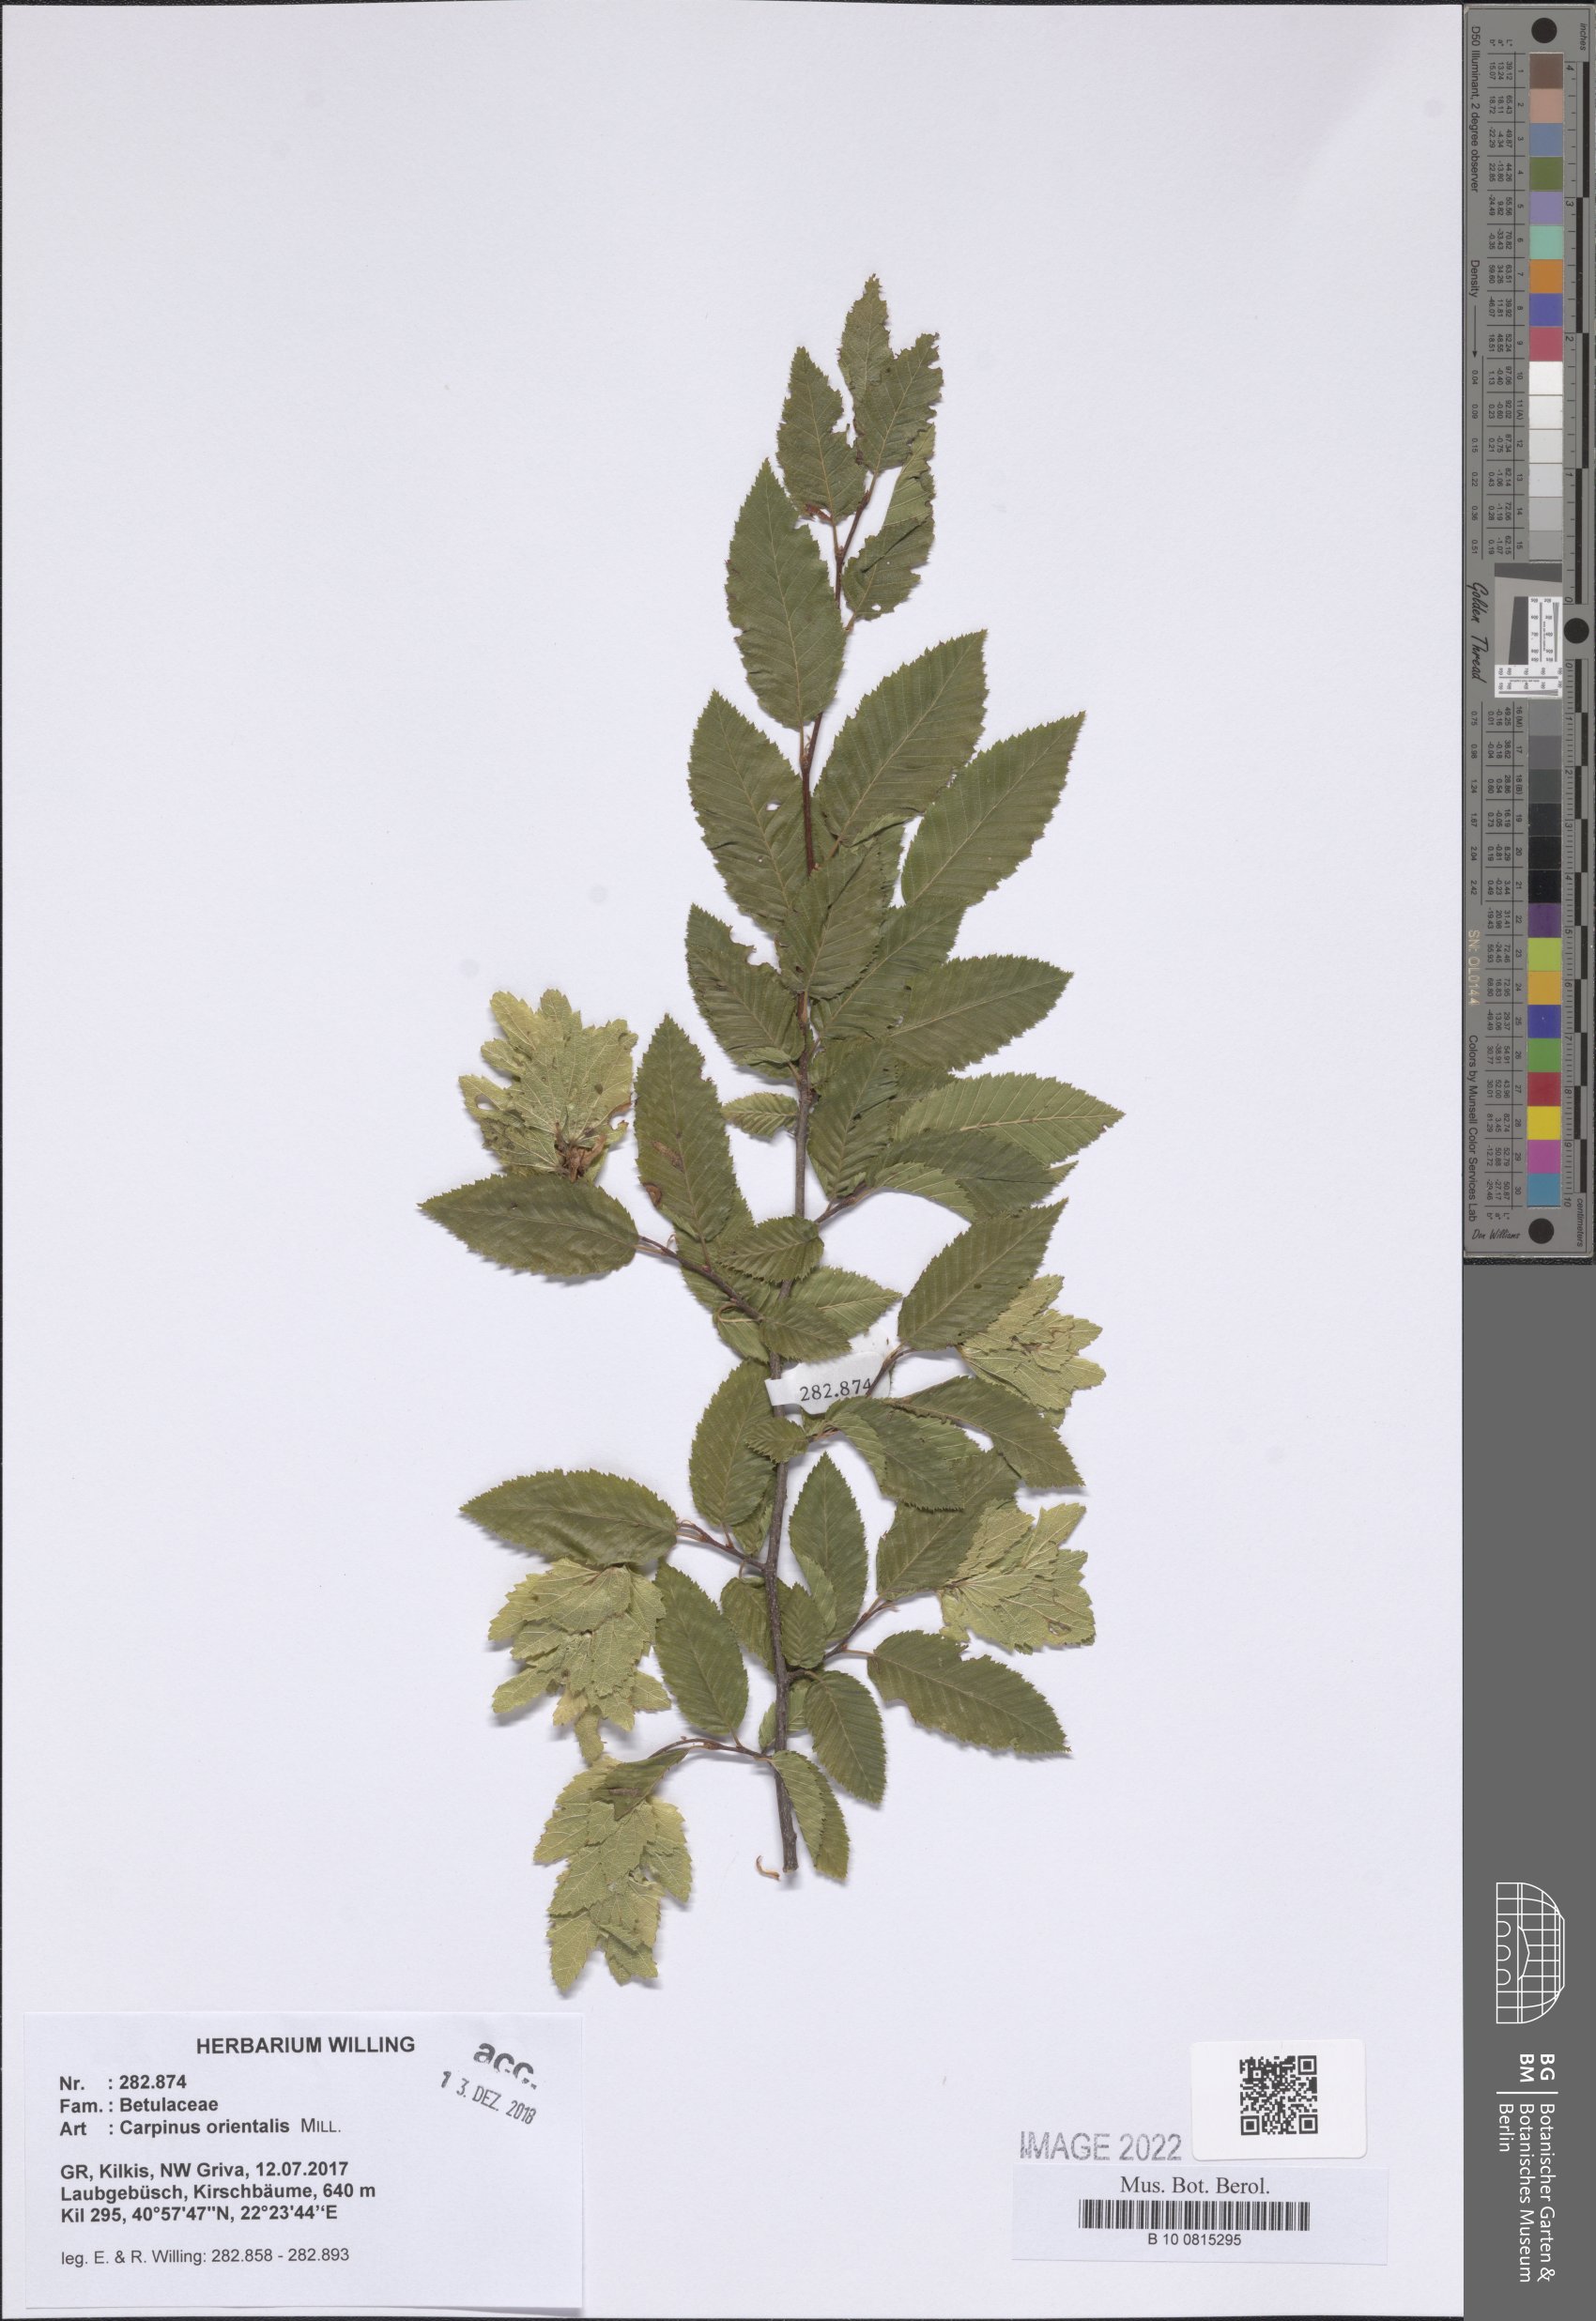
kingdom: Plantae
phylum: Tracheophyta
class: Magnoliopsida
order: Fagales
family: Betulaceae
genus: Carpinus
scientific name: Carpinus orientalis
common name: Eastern hornbeam
